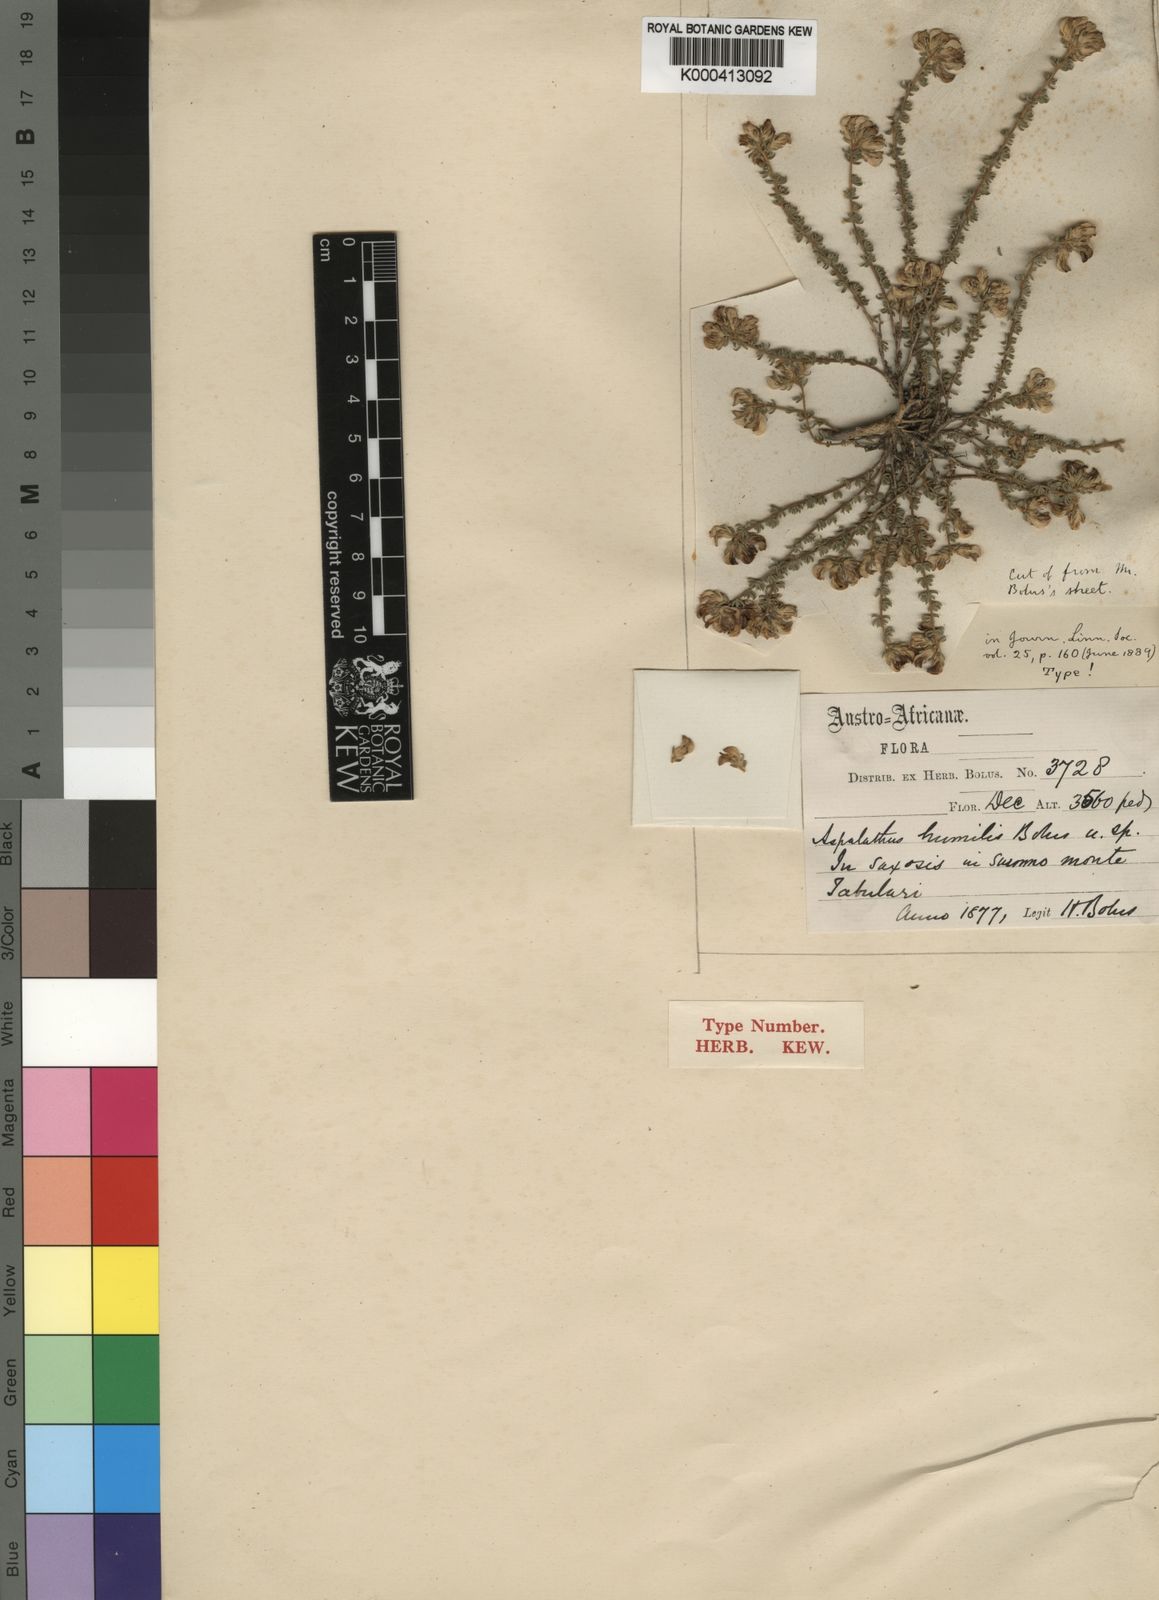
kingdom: Plantae
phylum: Tracheophyta
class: Magnoliopsida
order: Fabales
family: Fabaceae
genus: Aspalathus
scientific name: Aspalathus humilis
